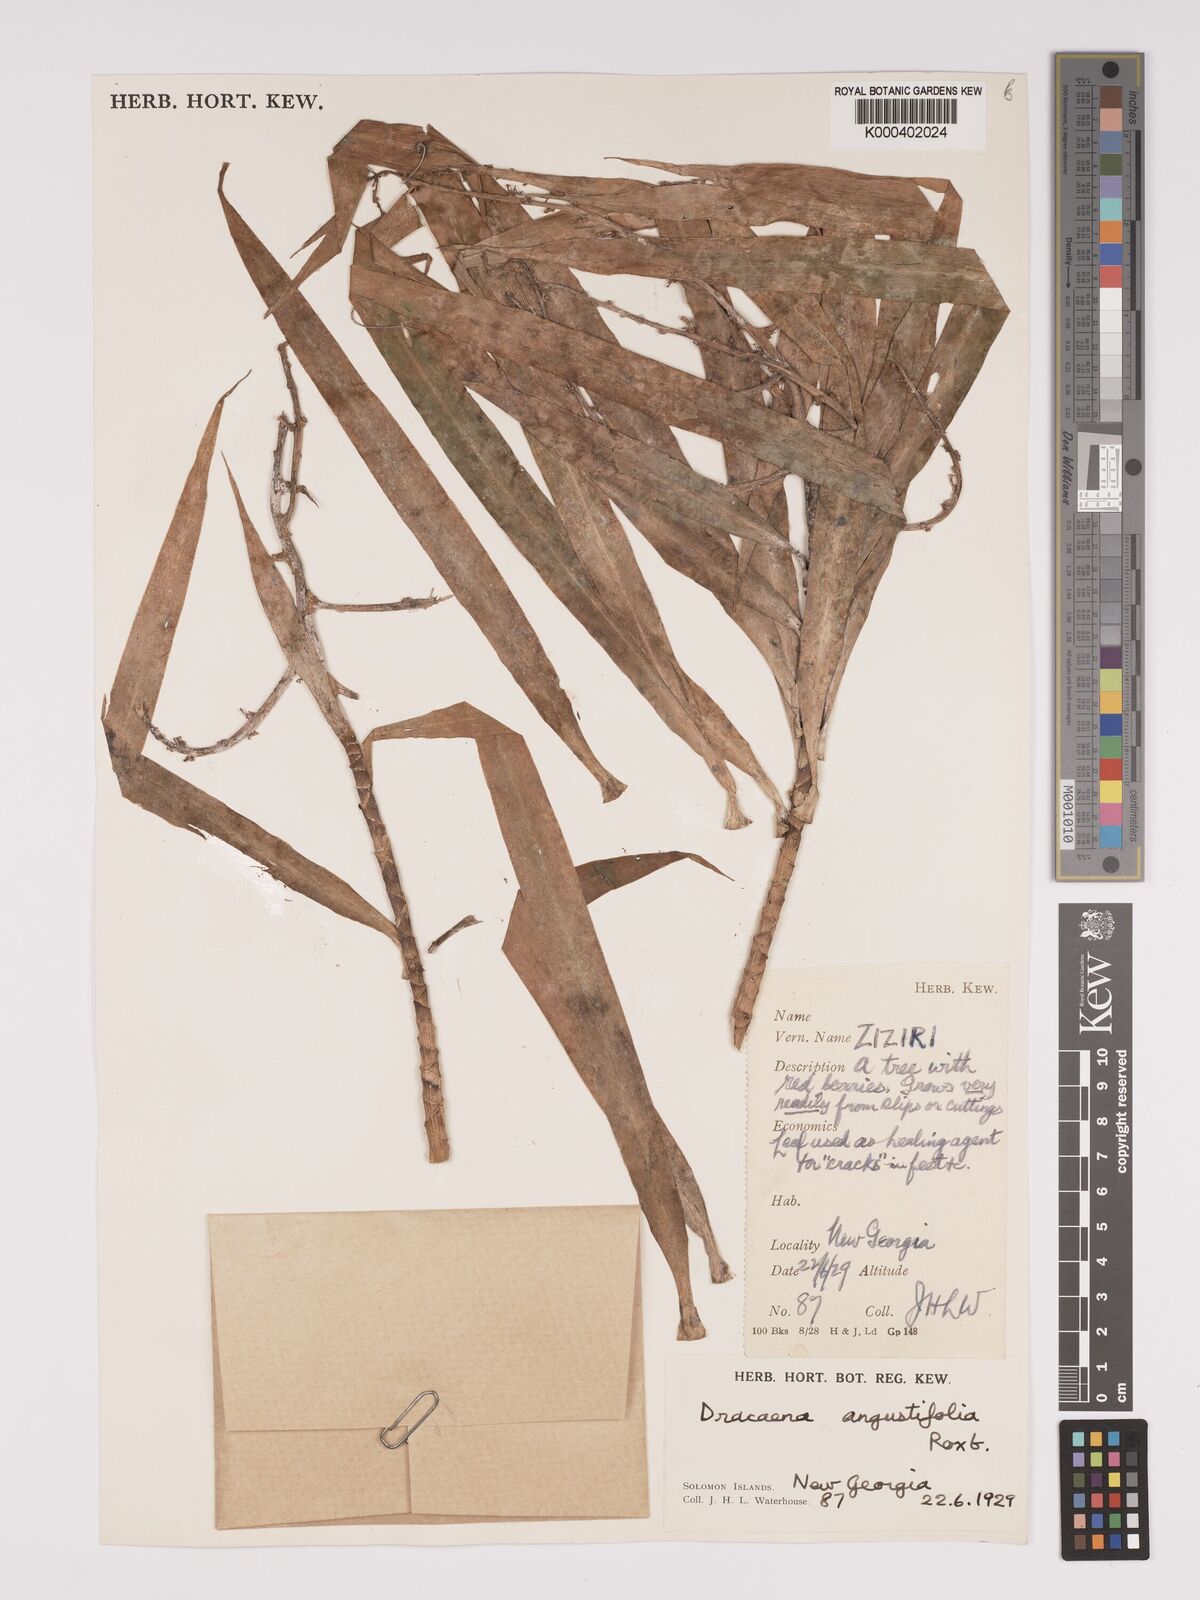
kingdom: Plantae
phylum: Tracheophyta
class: Liliopsida
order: Asparagales
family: Asparagaceae
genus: Dracaena
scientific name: Dracaena angustifolia
